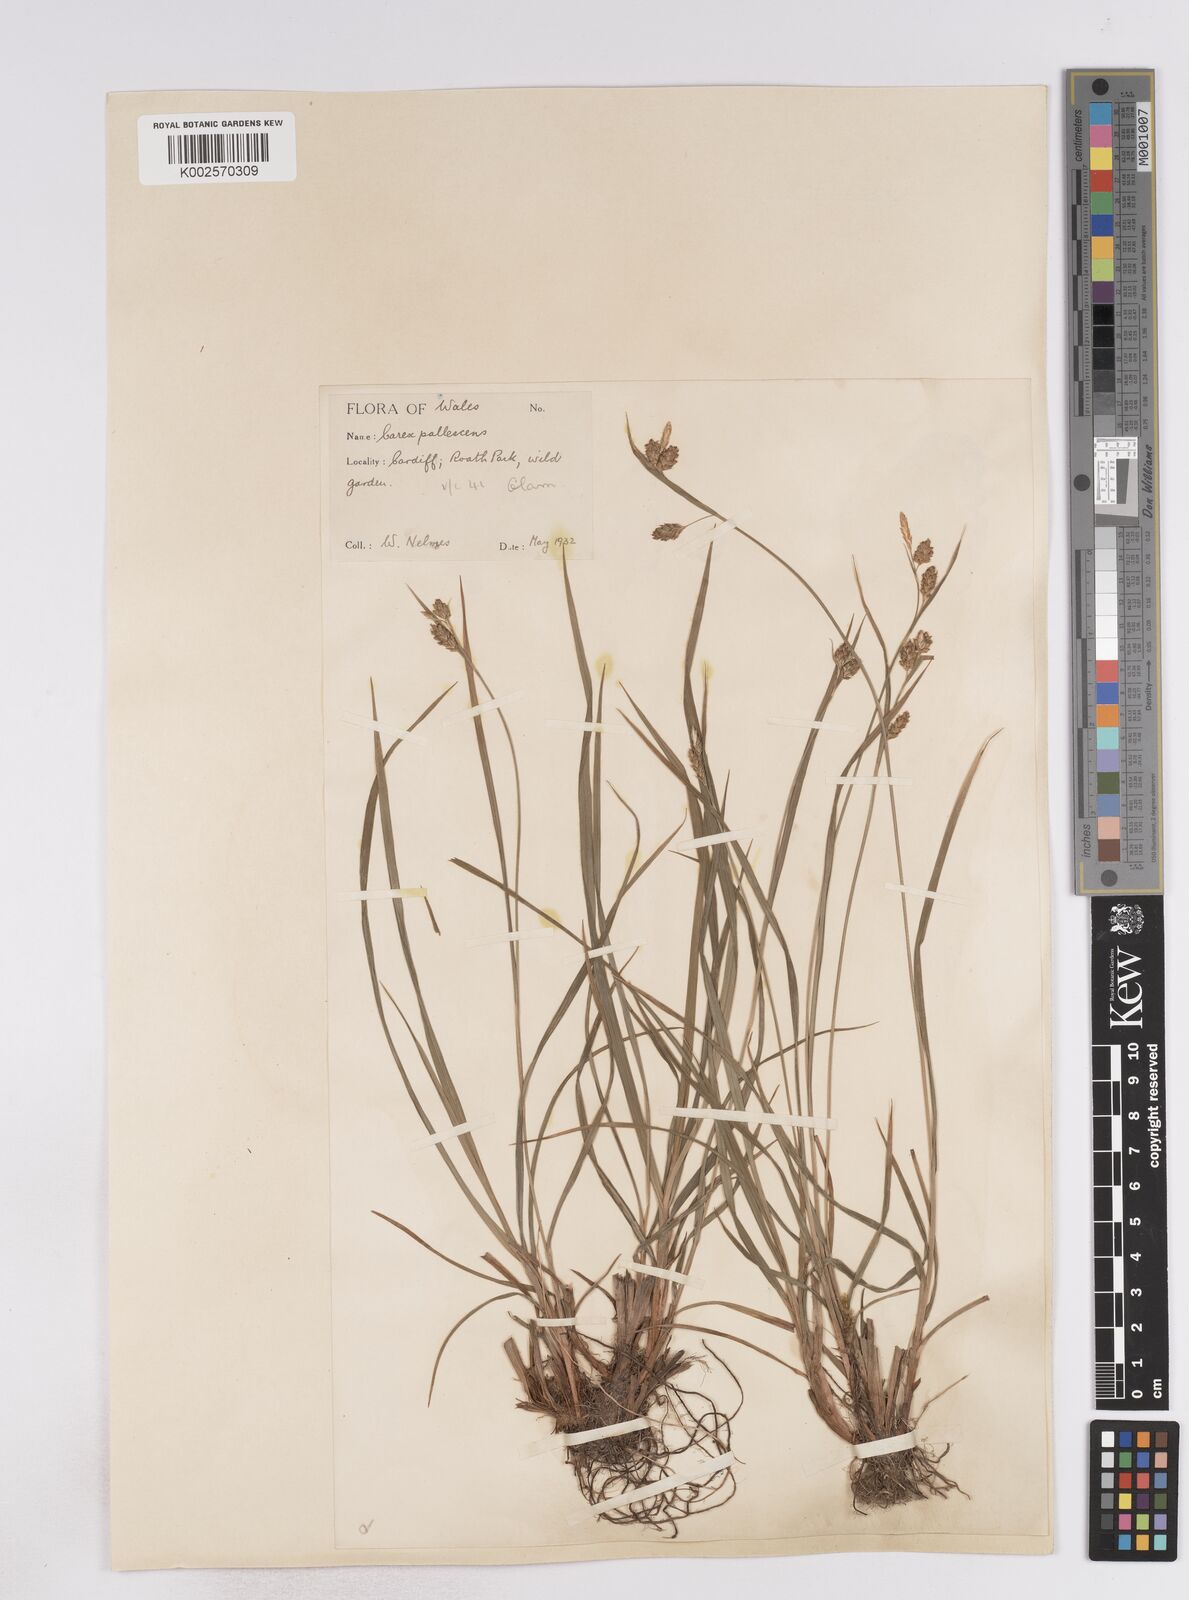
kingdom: Plantae
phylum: Tracheophyta
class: Liliopsida
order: Poales
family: Cyperaceae
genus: Carex
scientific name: Carex pallescens
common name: Pale sedge
